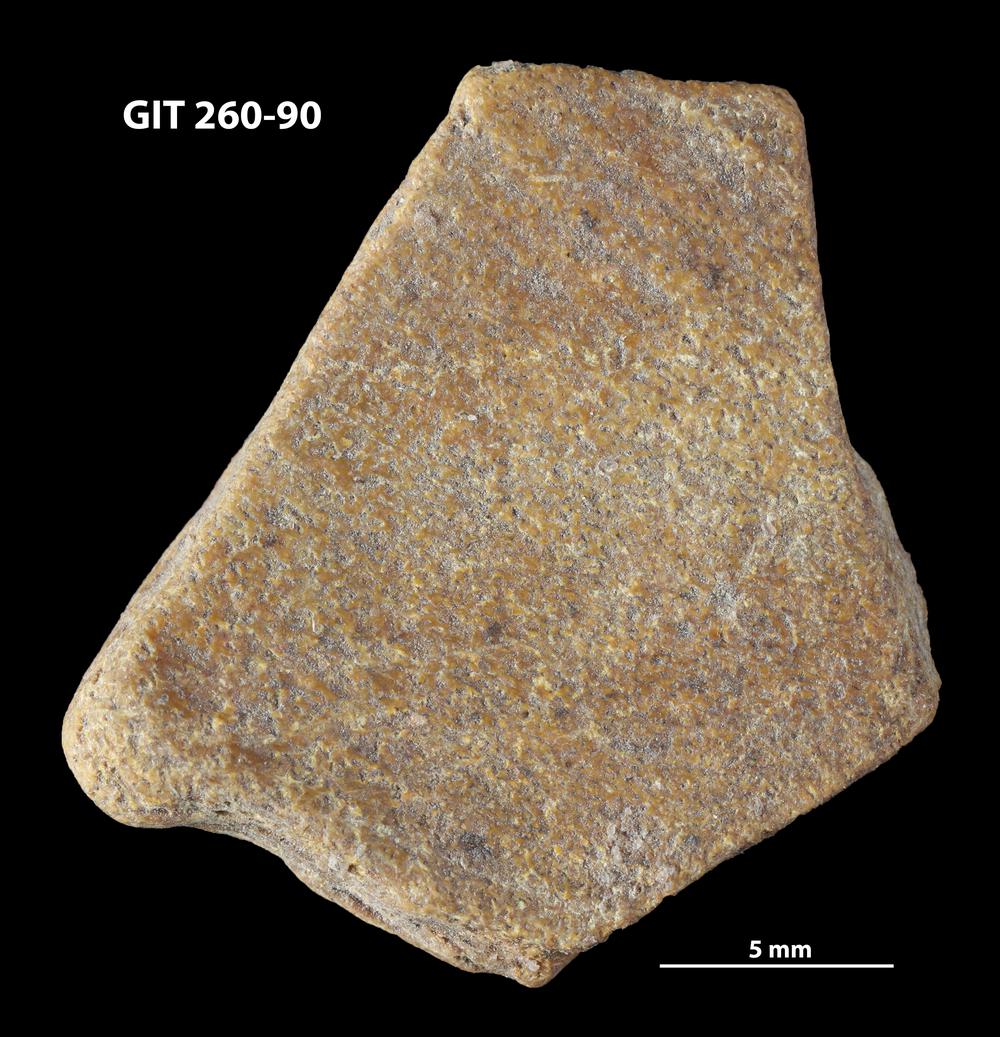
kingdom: Animalia
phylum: Chordata
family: Homostiidae
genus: Homostius
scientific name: Homostius
